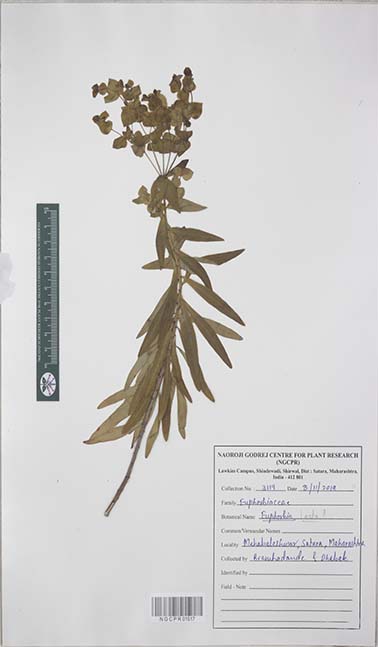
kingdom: Plantae
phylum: Tracheophyta
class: Magnoliopsida
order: Malpighiales
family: Euphorbiaceae
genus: Euphorbia
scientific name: Euphorbia
